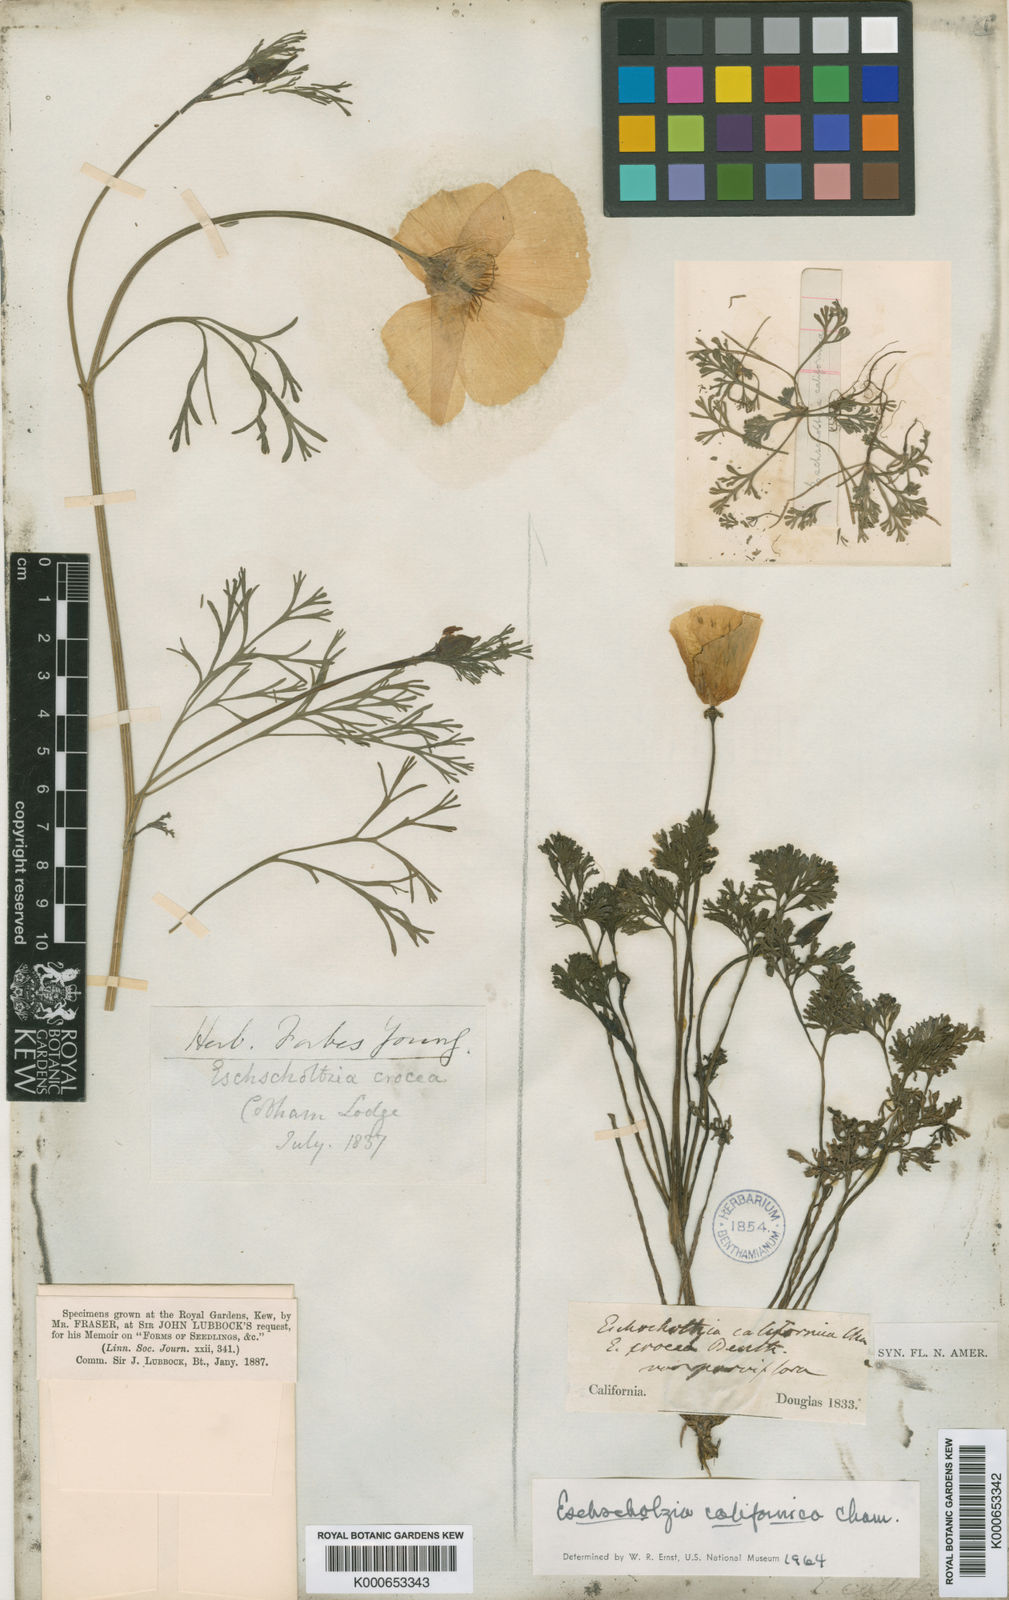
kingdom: Plantae
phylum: Tracheophyta
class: Magnoliopsida
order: Ranunculales
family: Papaveraceae
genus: Eschscholzia
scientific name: Eschscholzia californica
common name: California poppy
